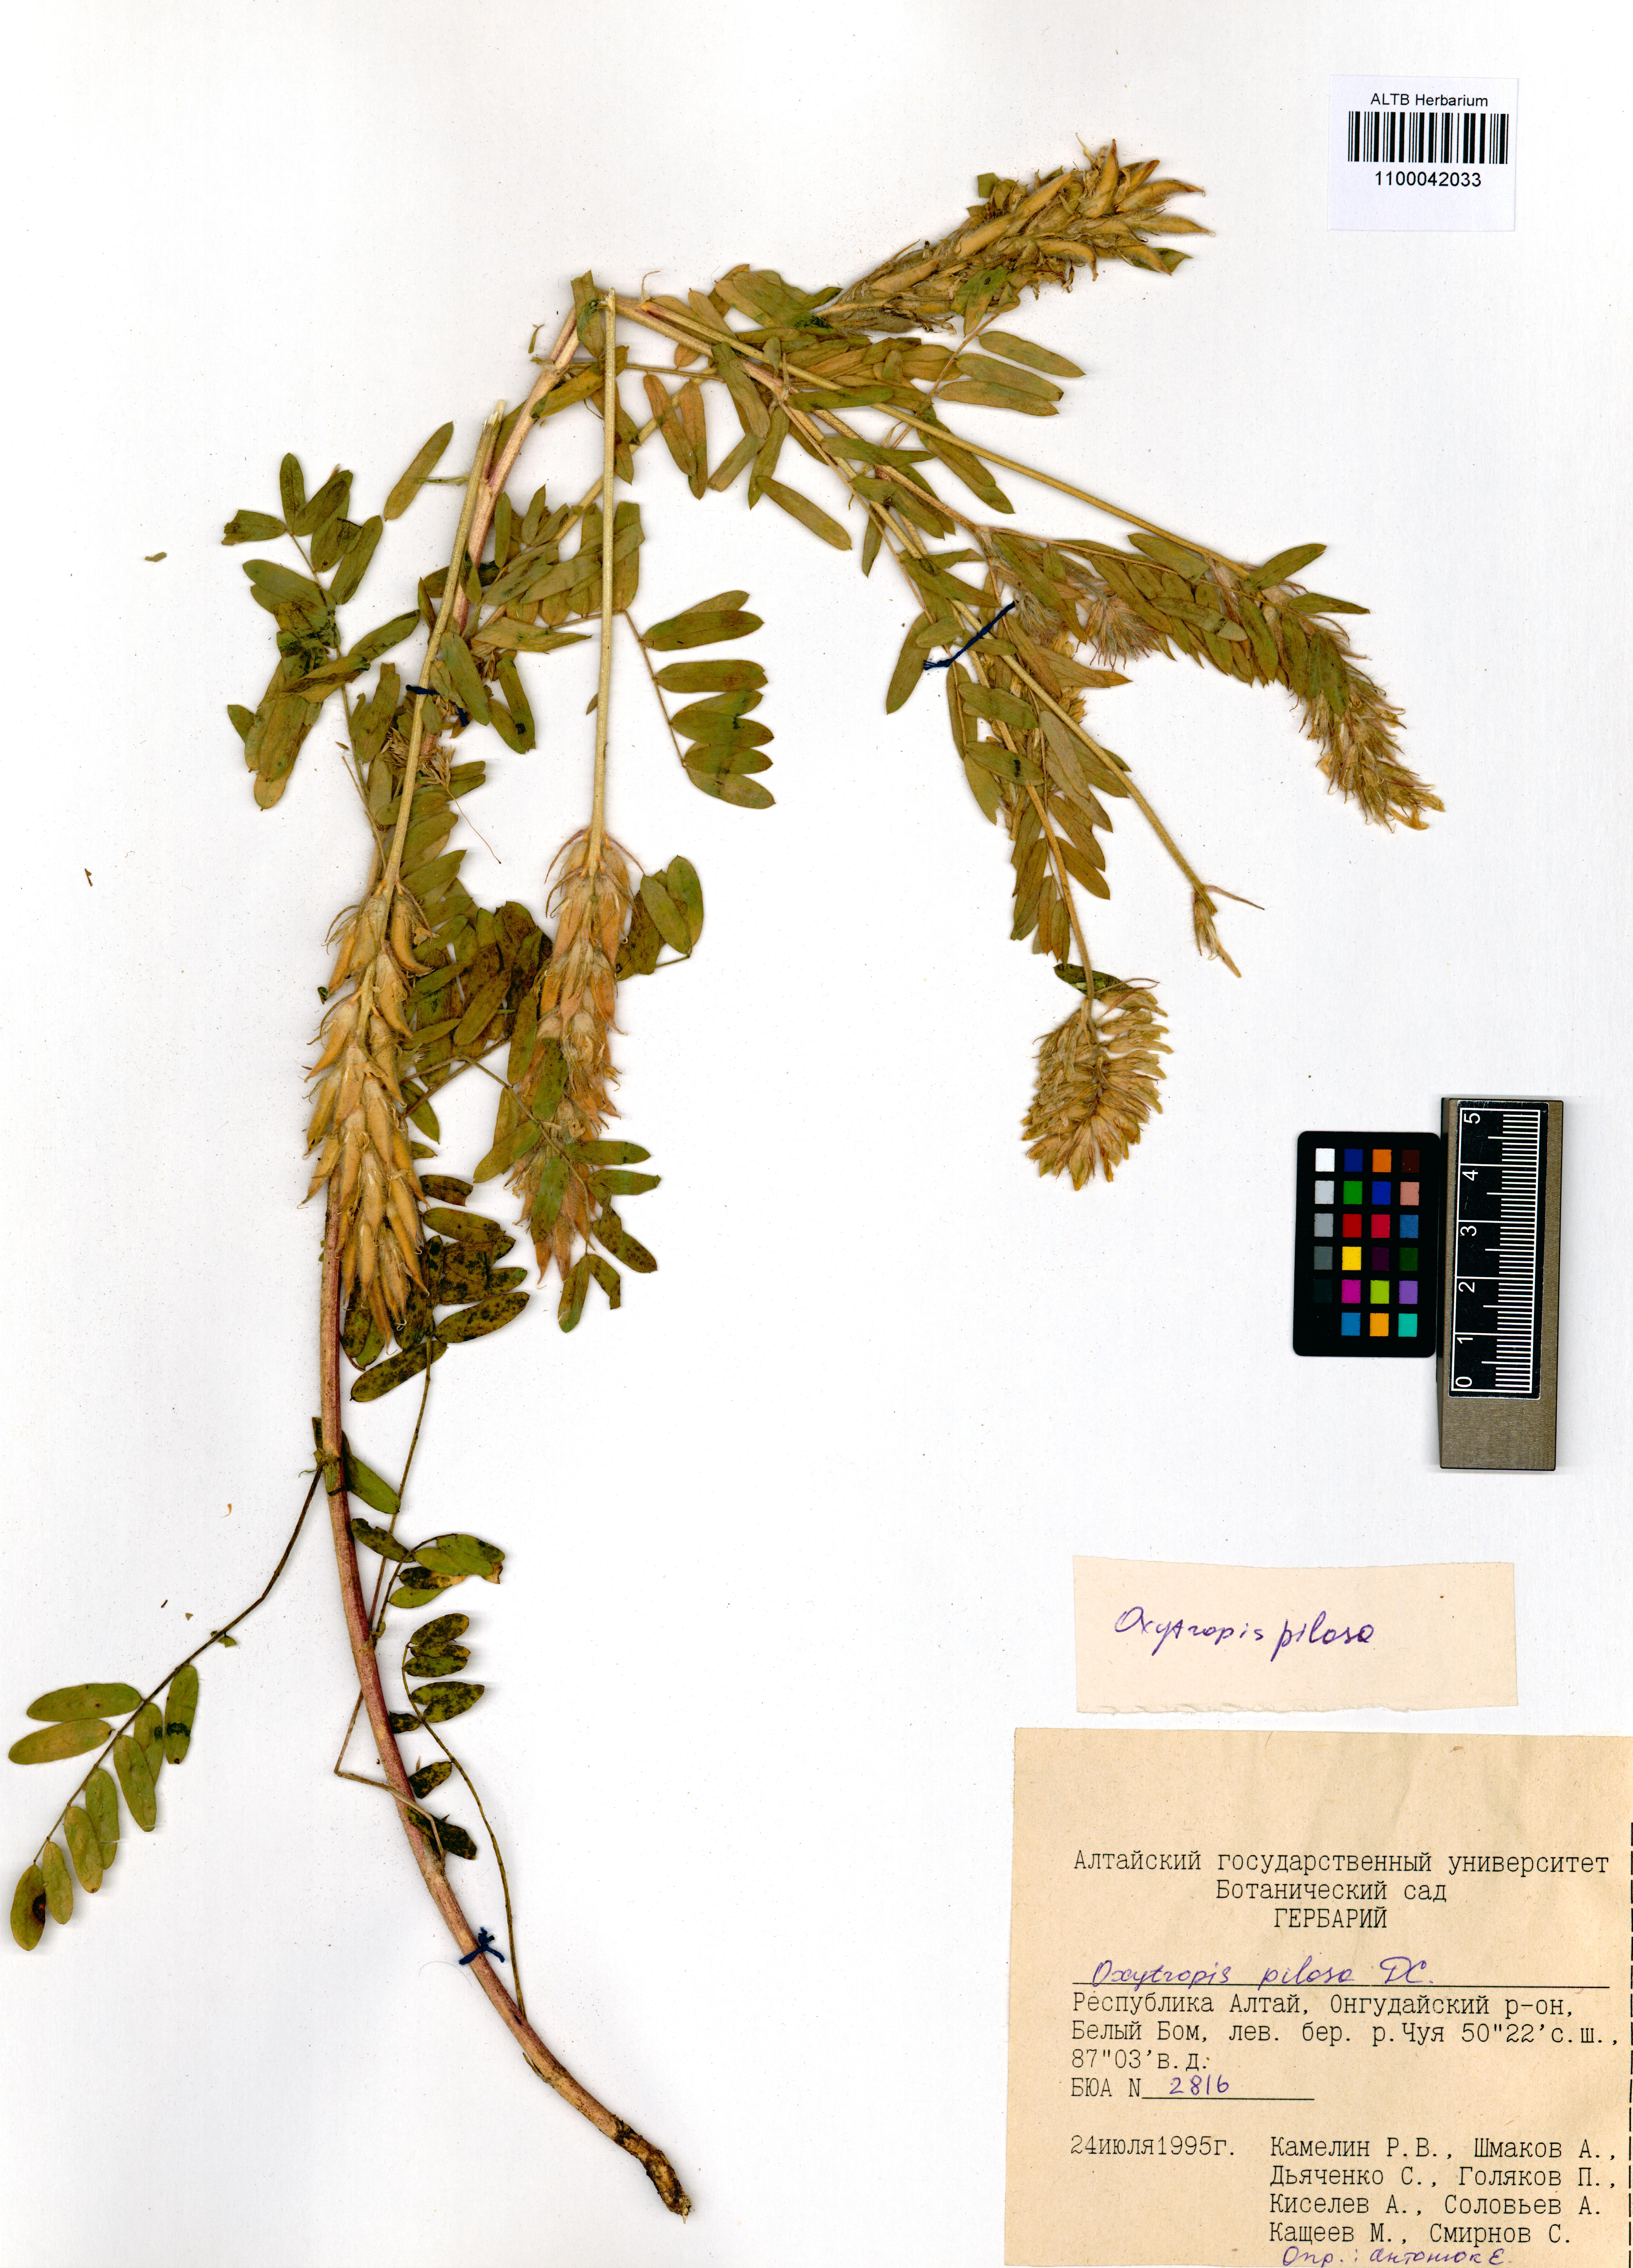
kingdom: Plantae
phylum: Tracheophyta
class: Magnoliopsida
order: Fabales
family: Fabaceae
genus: Oxytropis
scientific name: Oxytropis pilosa
